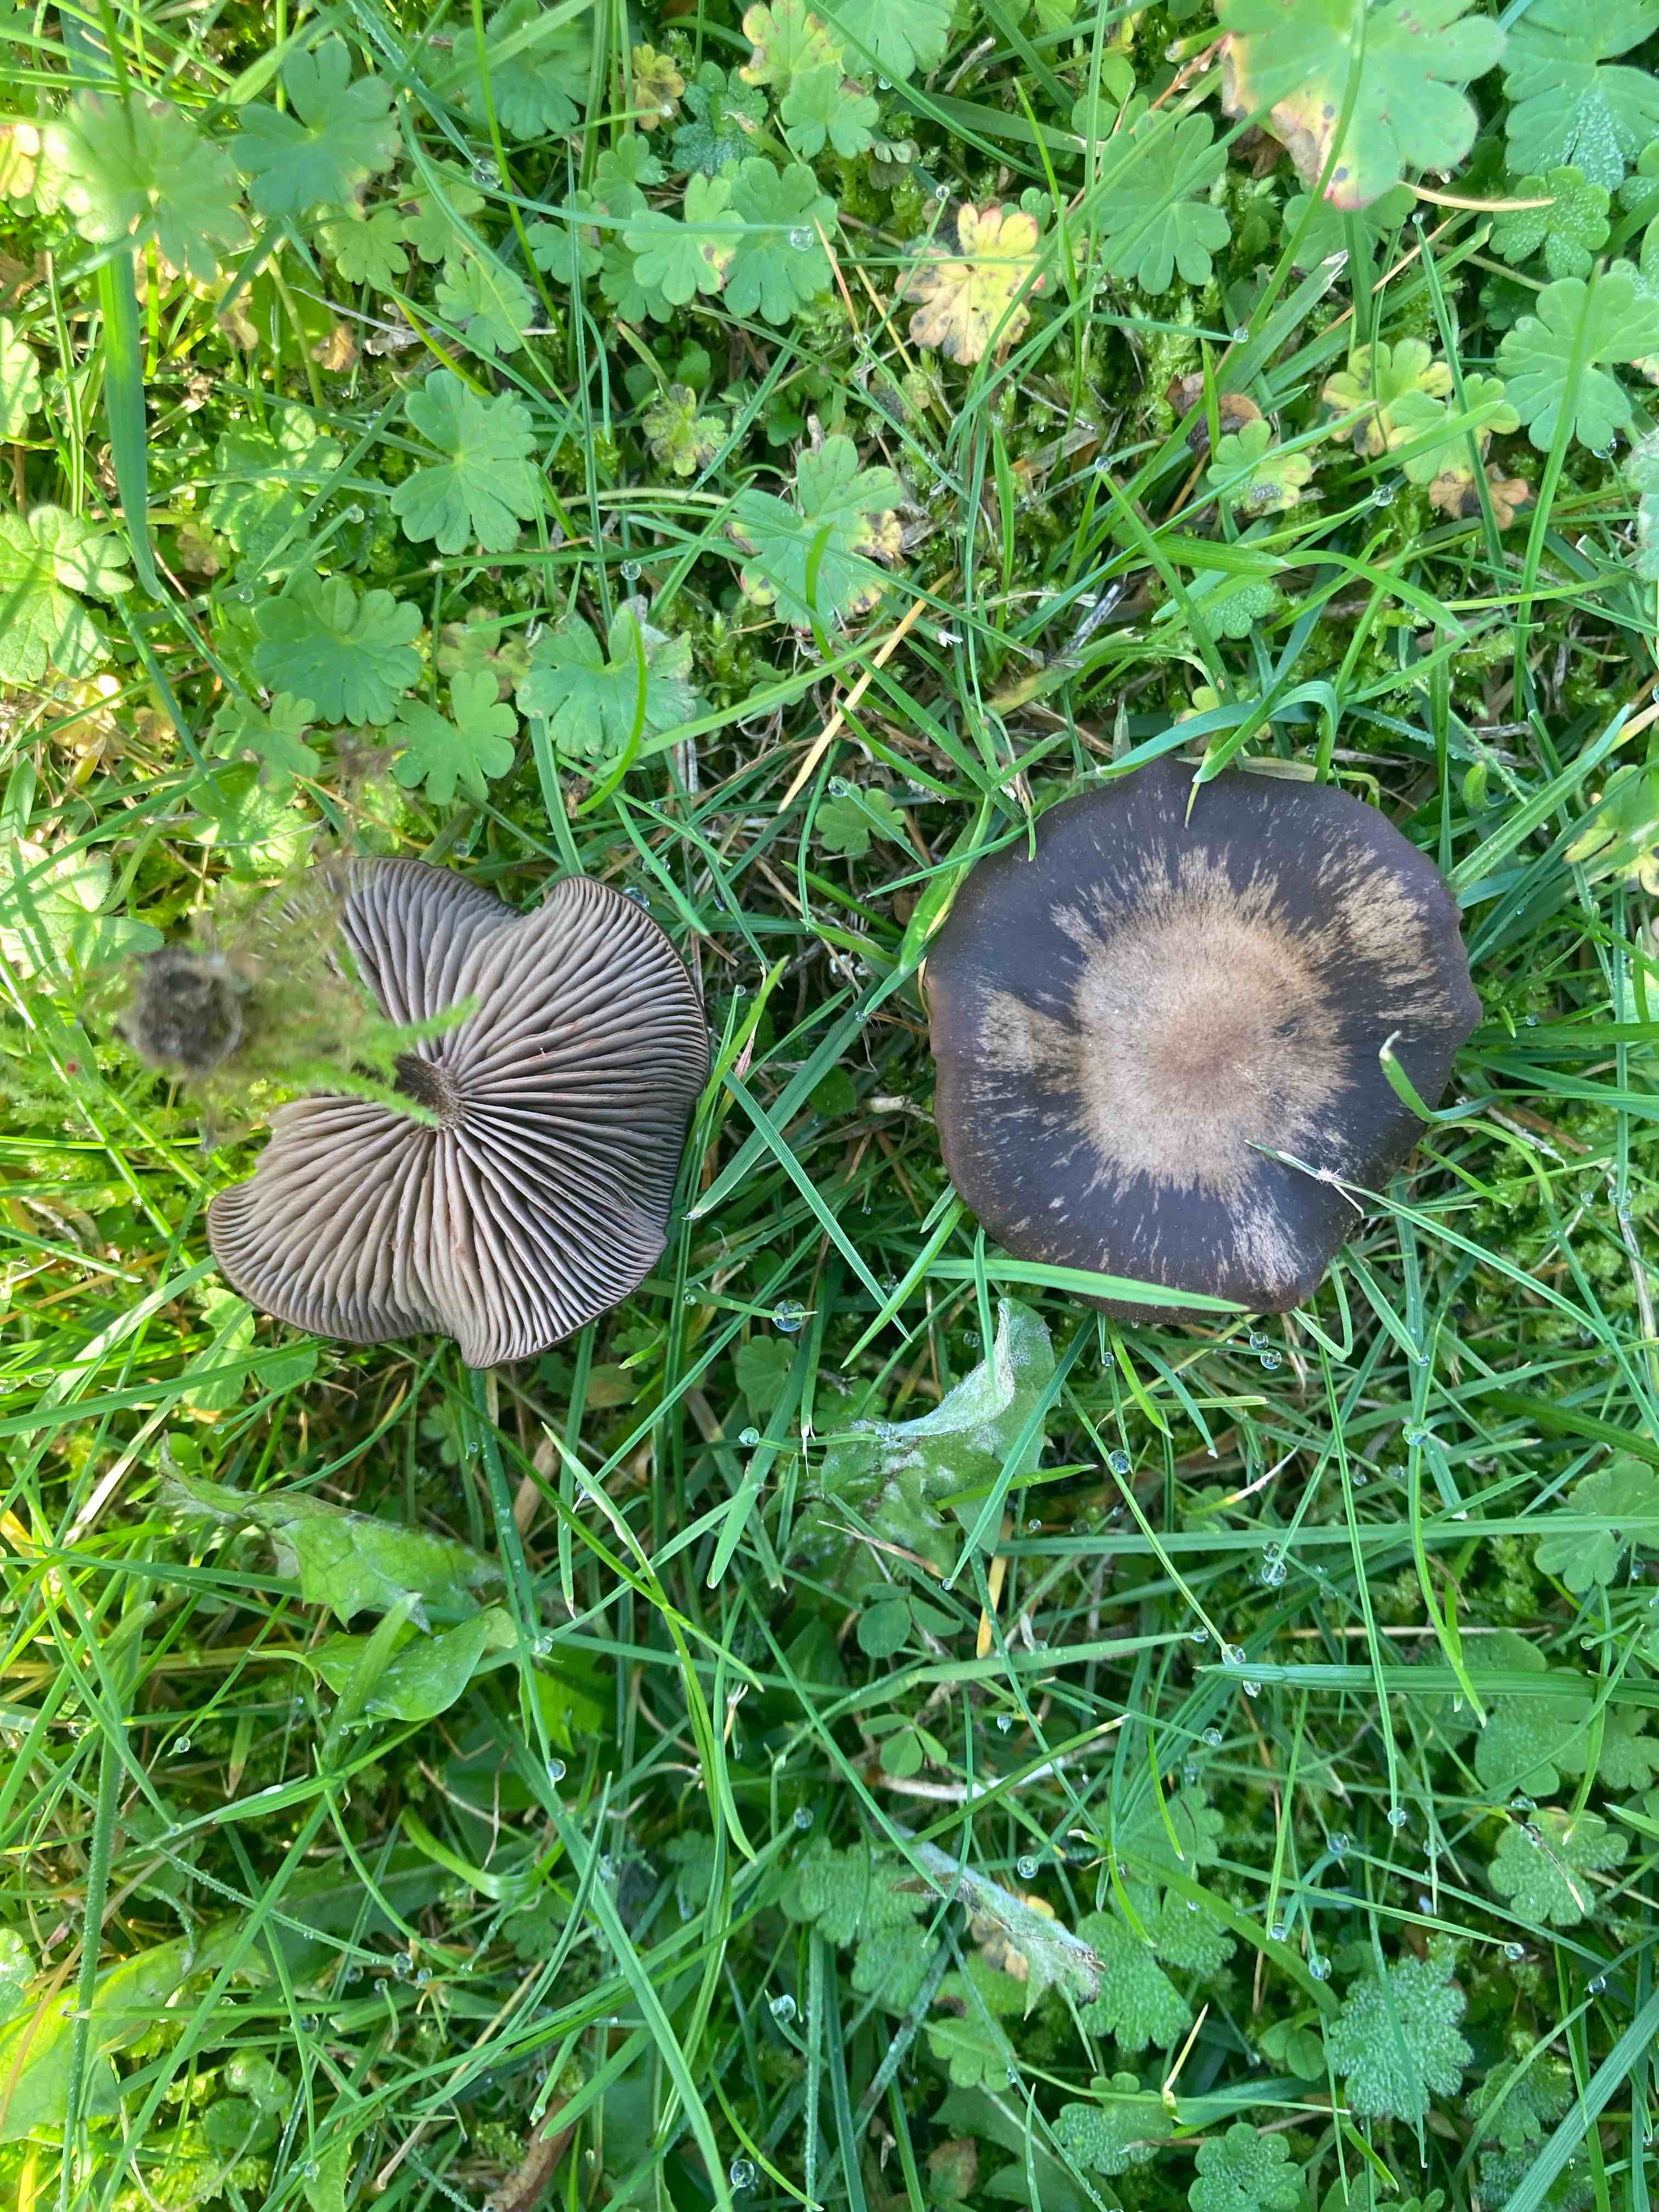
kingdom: Fungi
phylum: Basidiomycota
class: Agaricomycetes
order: Agaricales
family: Entolomataceae
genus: Entoloma
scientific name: Entoloma
